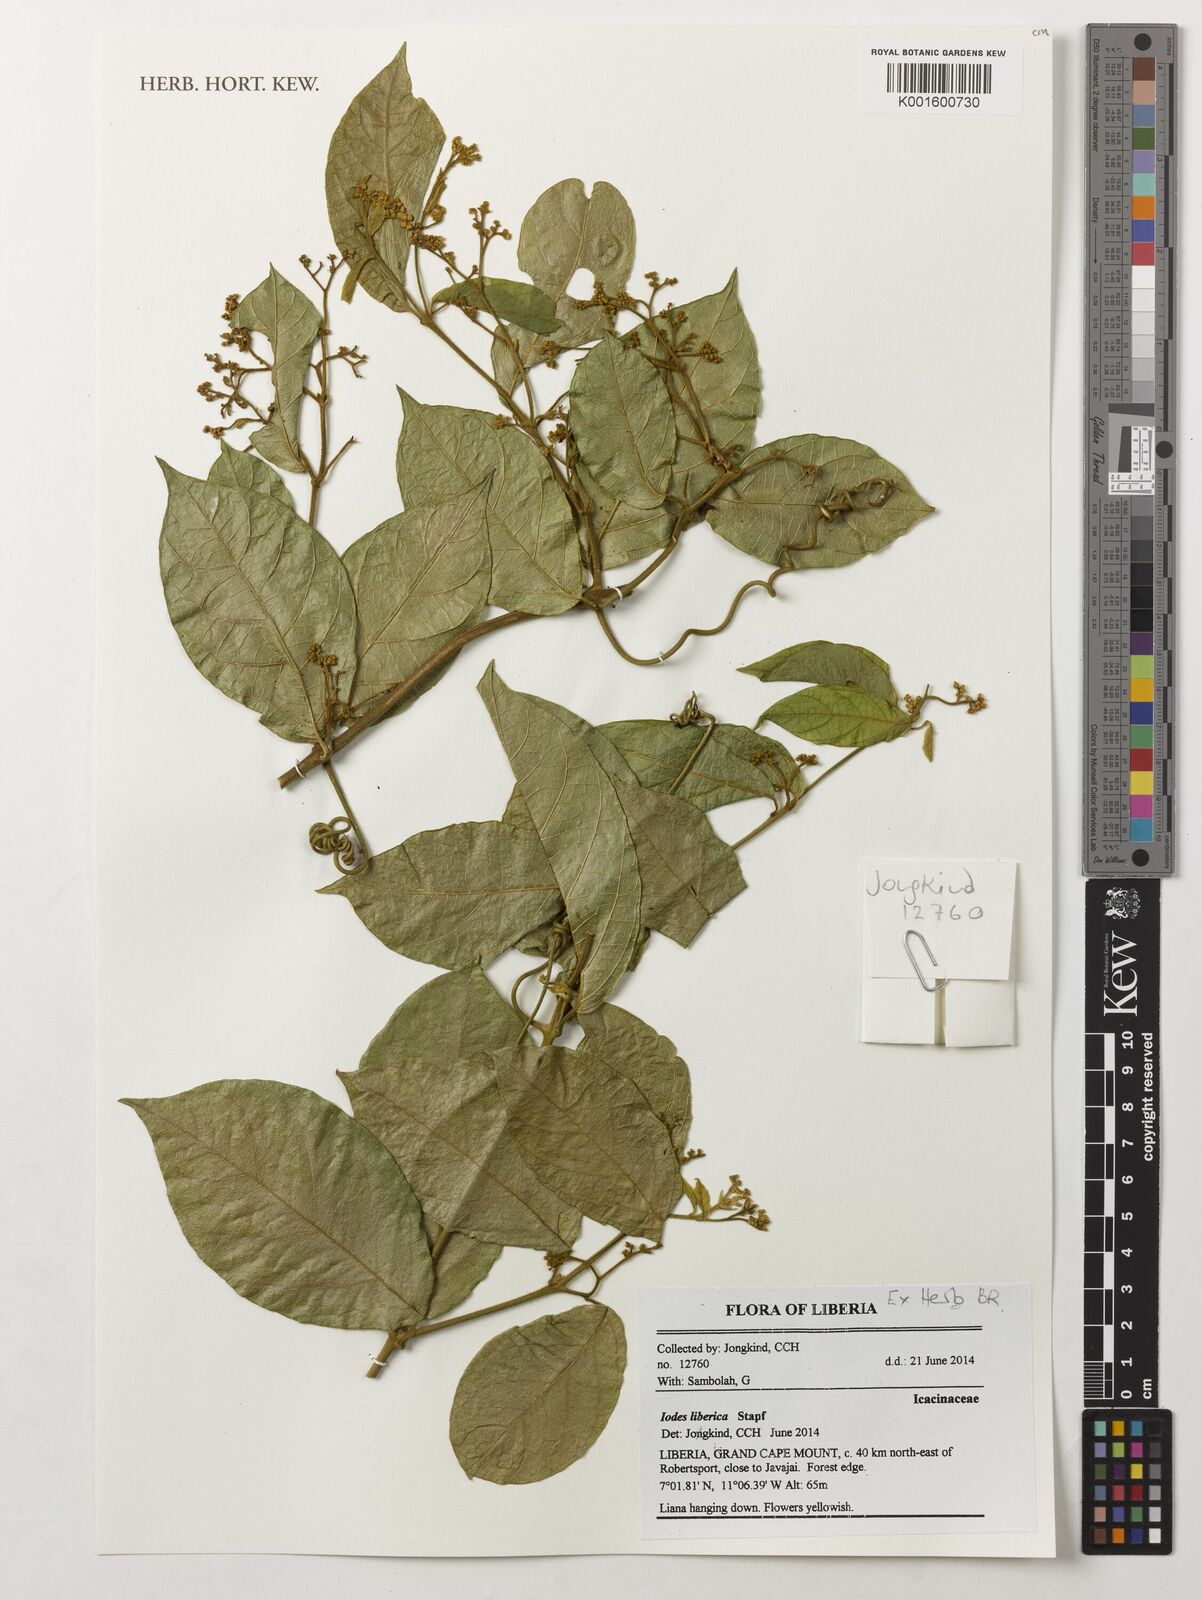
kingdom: Plantae
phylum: Tracheophyta
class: Magnoliopsida
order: Icacinales
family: Icacinaceae
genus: Iodes
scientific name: Iodes liberica
